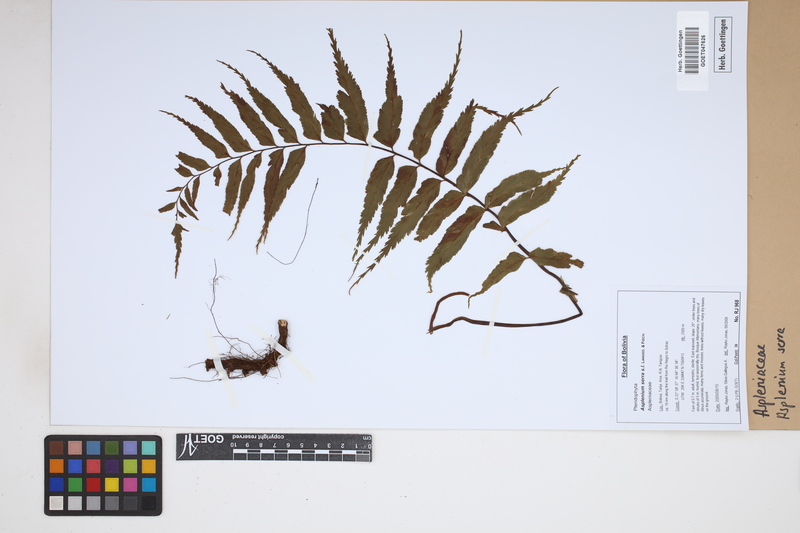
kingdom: Plantae
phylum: Tracheophyta
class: Polypodiopsida
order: Polypodiales
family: Aspleniaceae
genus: Asplenium
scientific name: Asplenium serra
